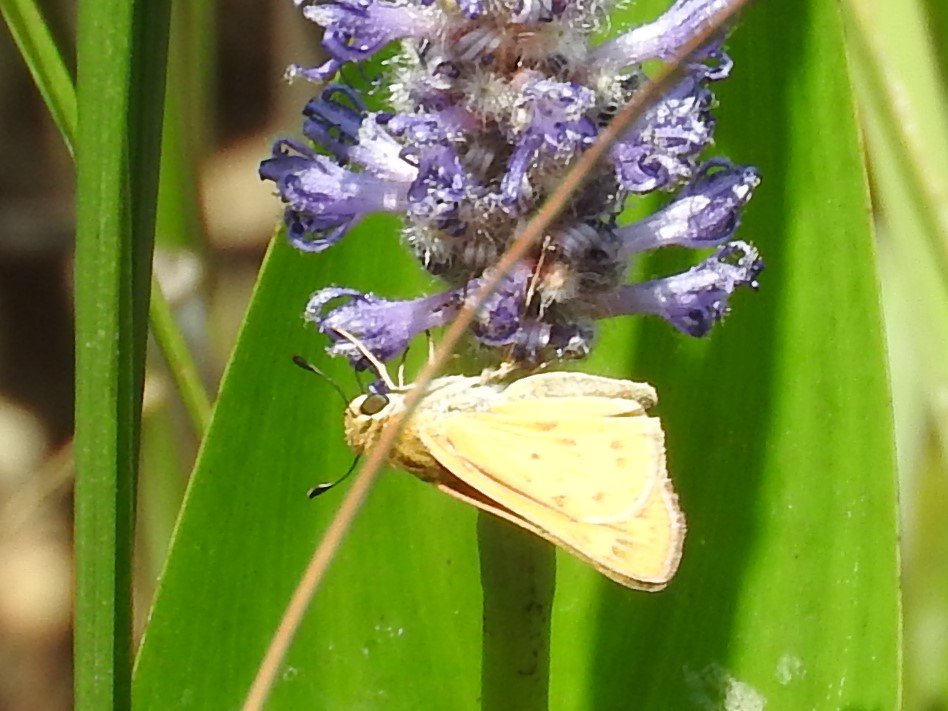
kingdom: Animalia
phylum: Arthropoda
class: Insecta
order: Lepidoptera
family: Hesperiidae
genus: Hylephila
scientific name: Hylephila phyleus
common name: Fiery Skipper
